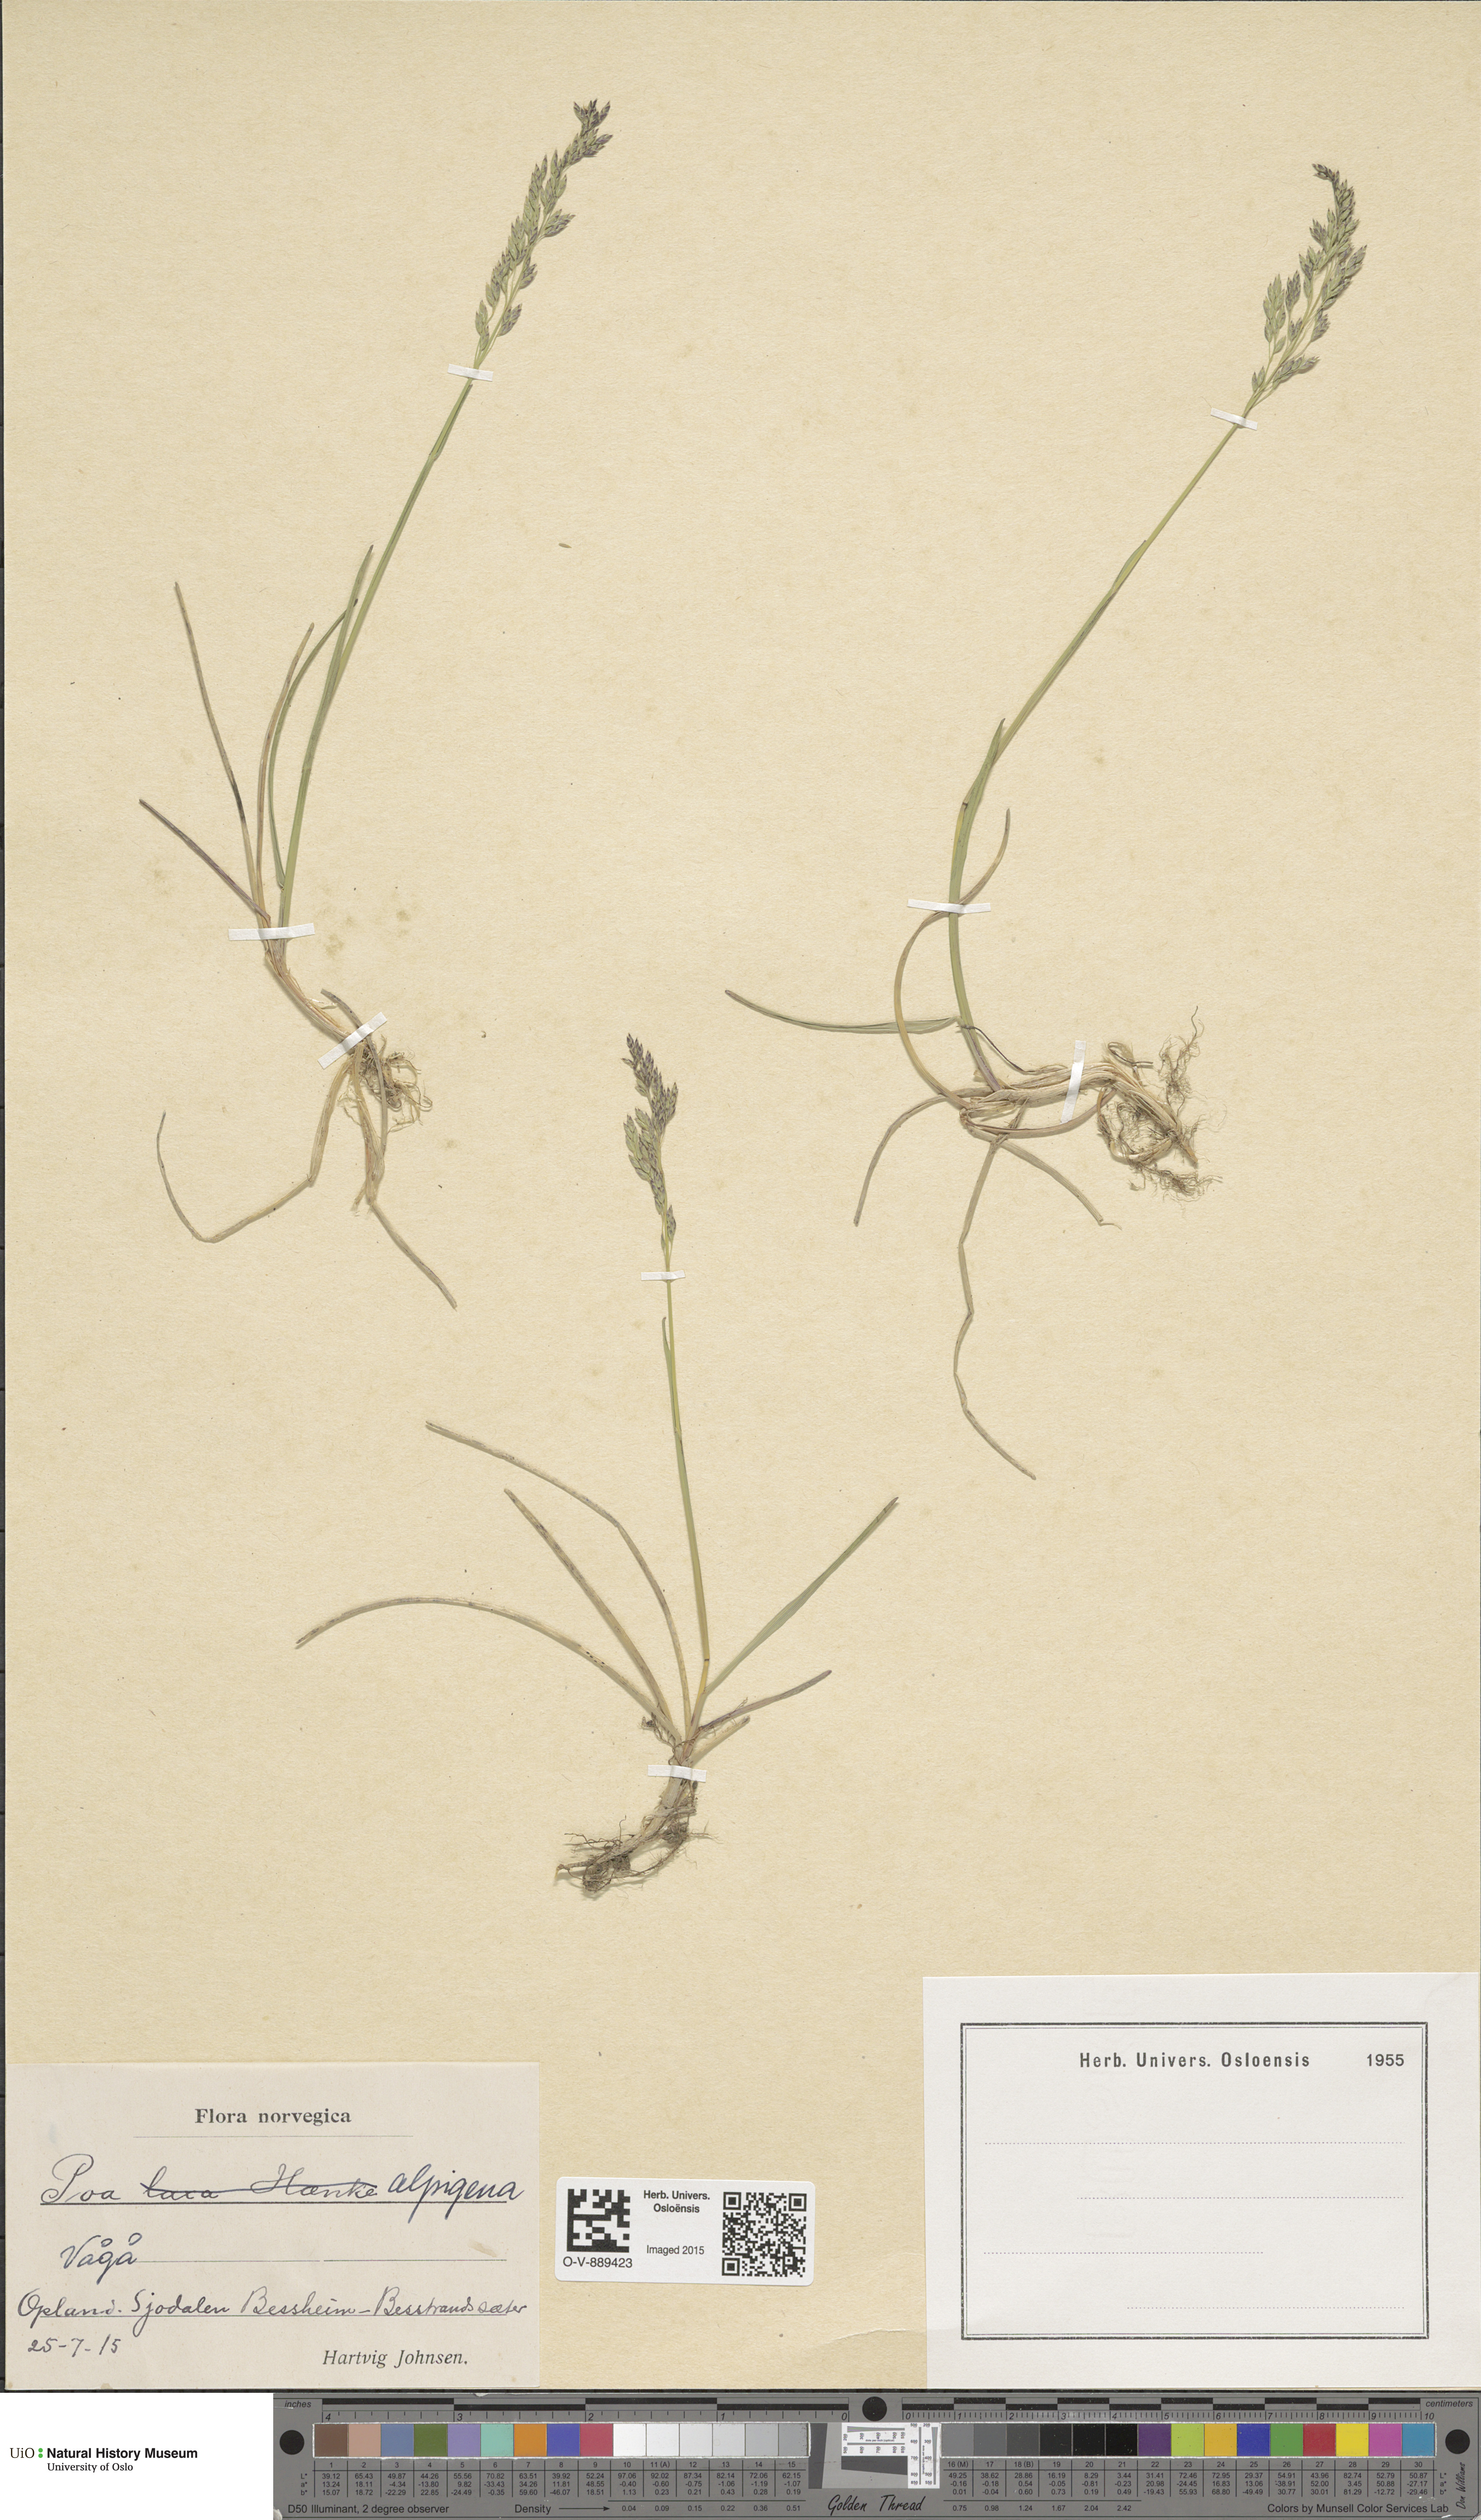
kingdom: Plantae
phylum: Tracheophyta
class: Liliopsida
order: Poales
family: Poaceae
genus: Poa
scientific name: Poa alpigena
